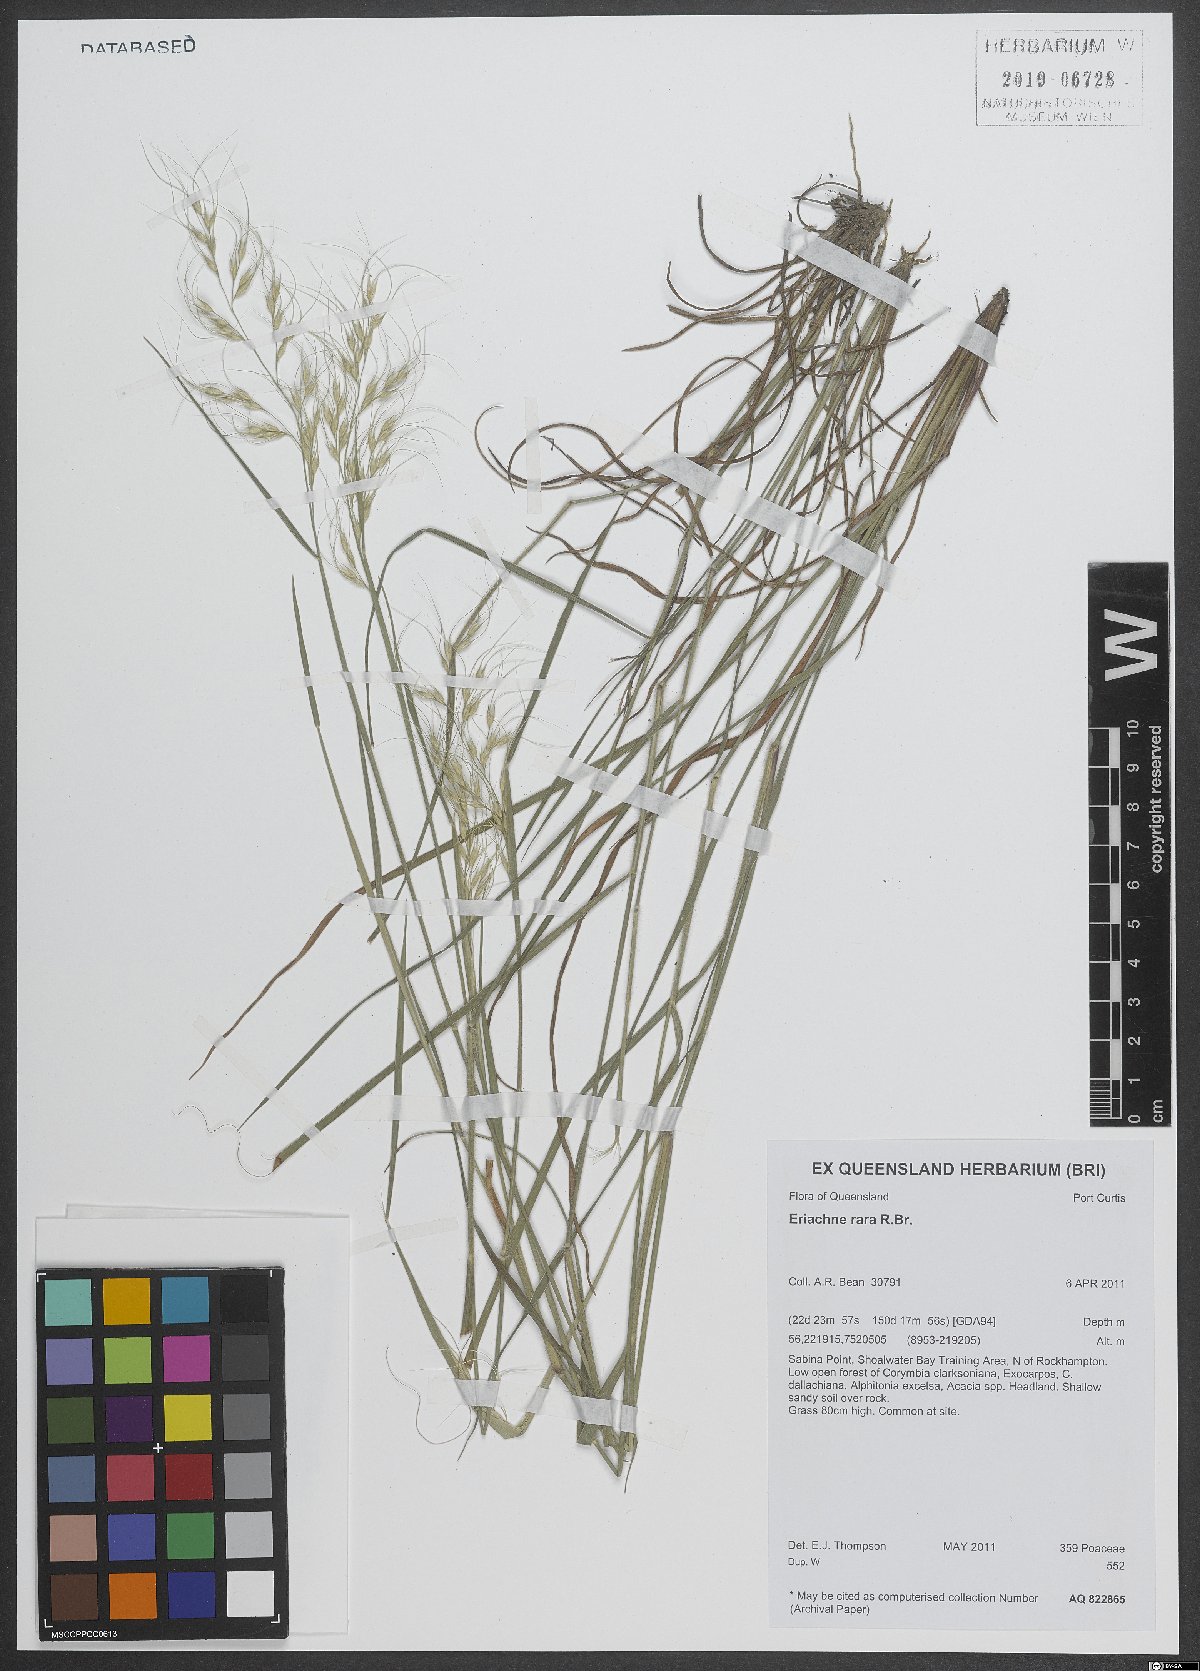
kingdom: Plantae
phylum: Tracheophyta
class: Liliopsida
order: Poales
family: Poaceae
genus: Eriachne
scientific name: Eriachne rara
